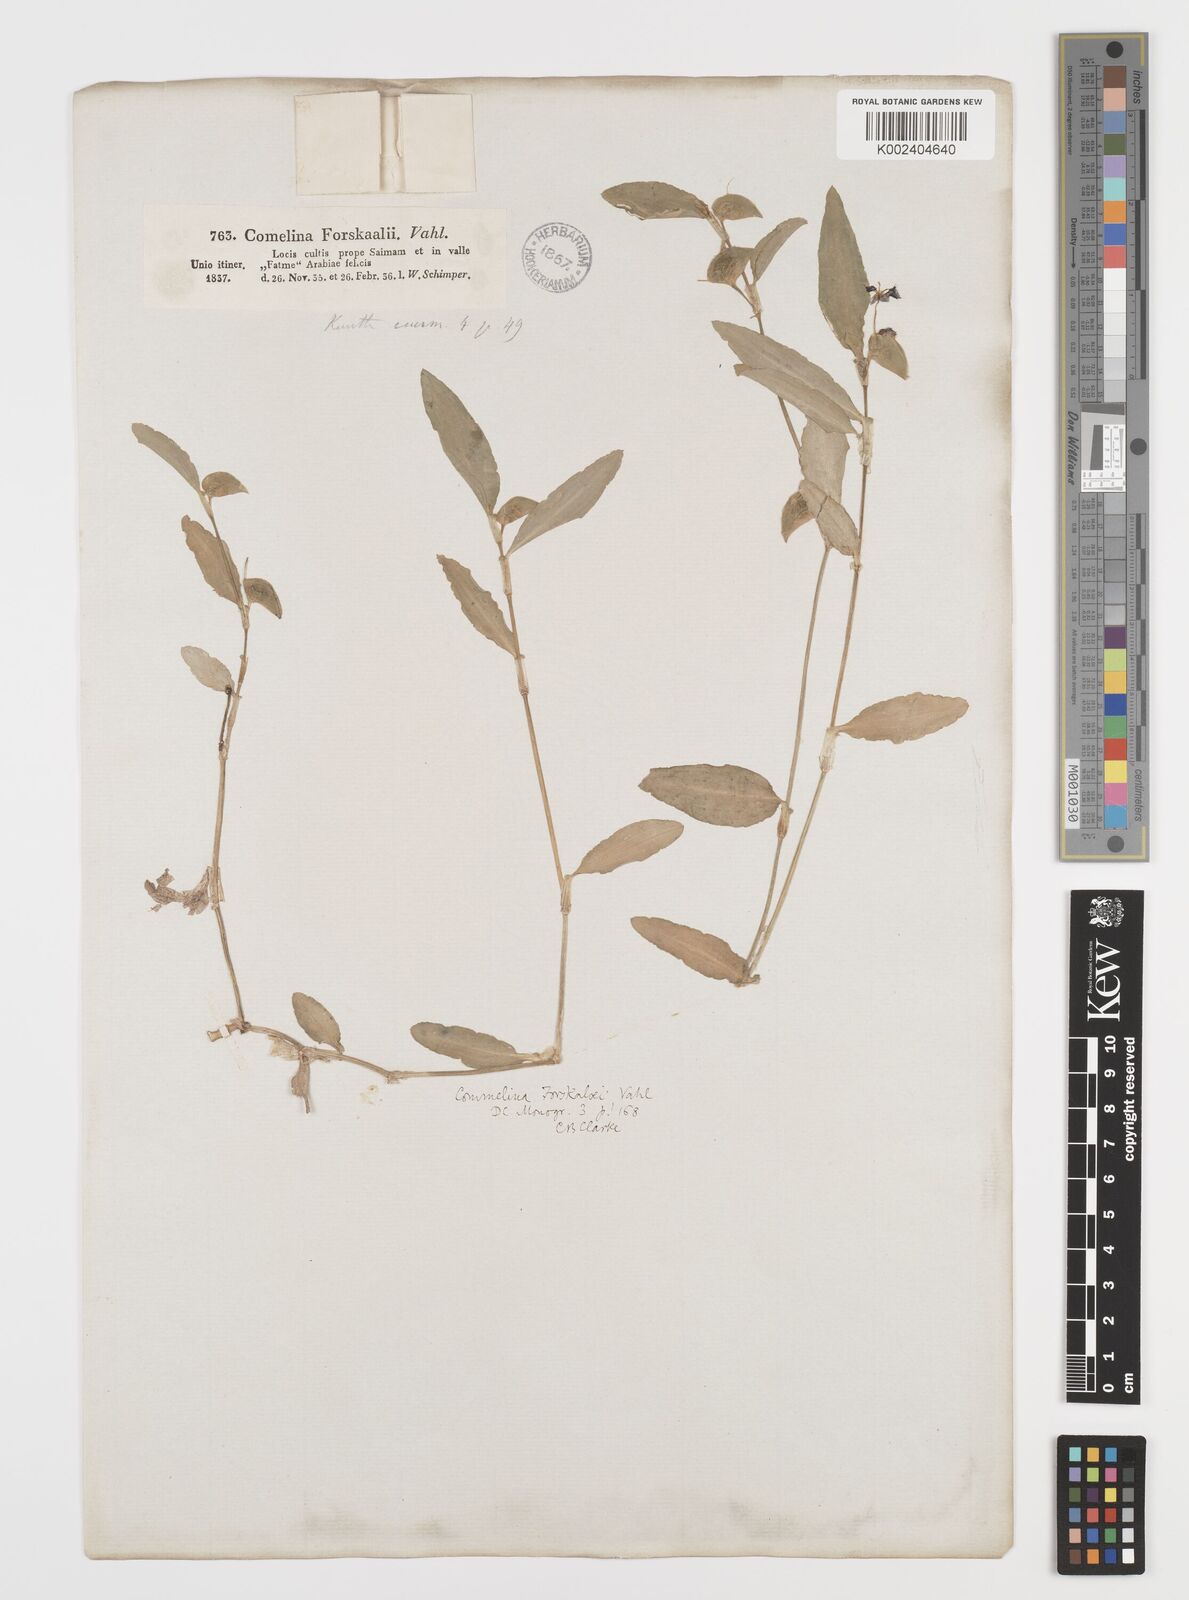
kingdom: Plantae
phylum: Tracheophyta
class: Liliopsida
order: Commelinales
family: Commelinaceae
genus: Commelina
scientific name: Commelina forskaolii
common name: Rat's ear
